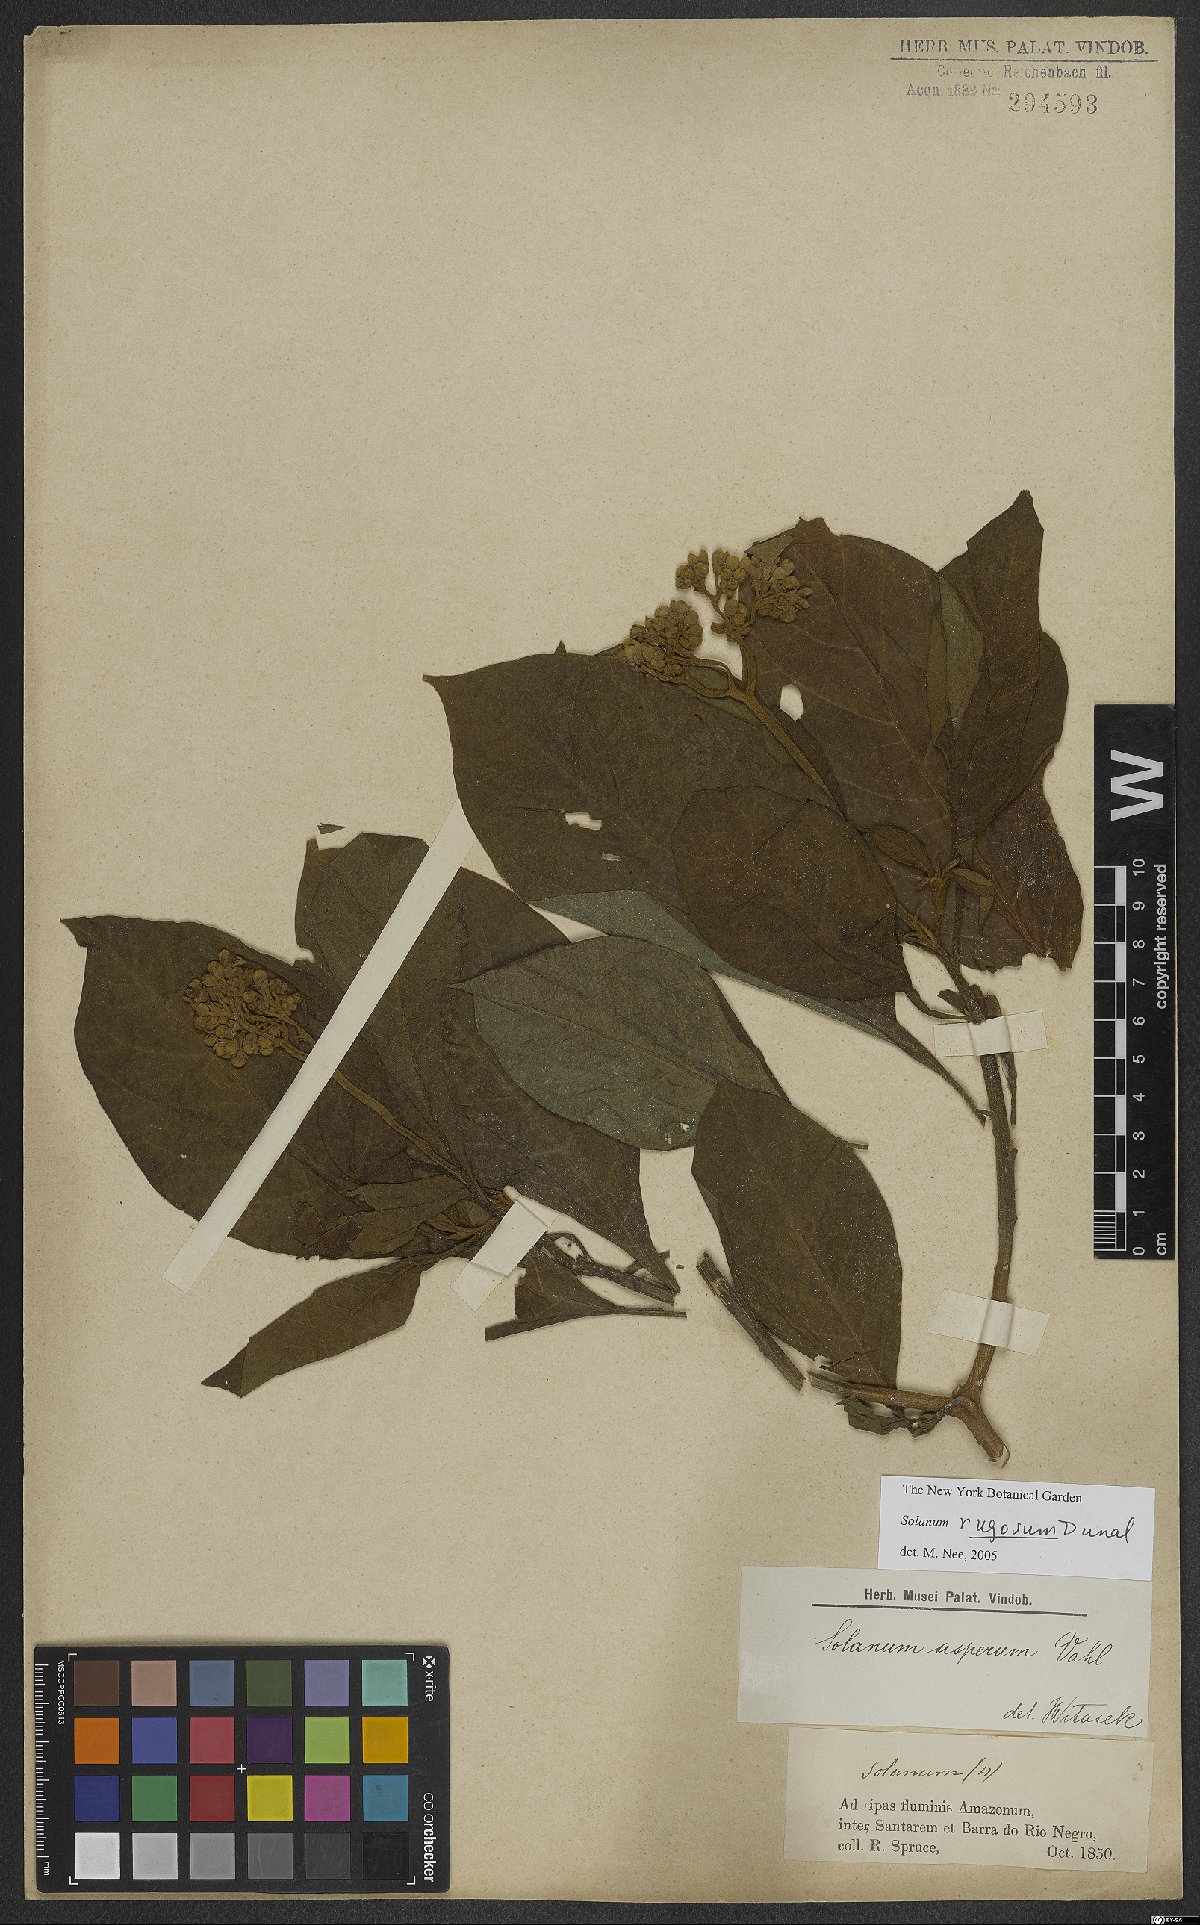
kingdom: Plantae
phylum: Tracheophyta
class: Magnoliopsida
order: Solanales
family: Solanaceae
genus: Solanum
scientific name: Solanum rugosum
